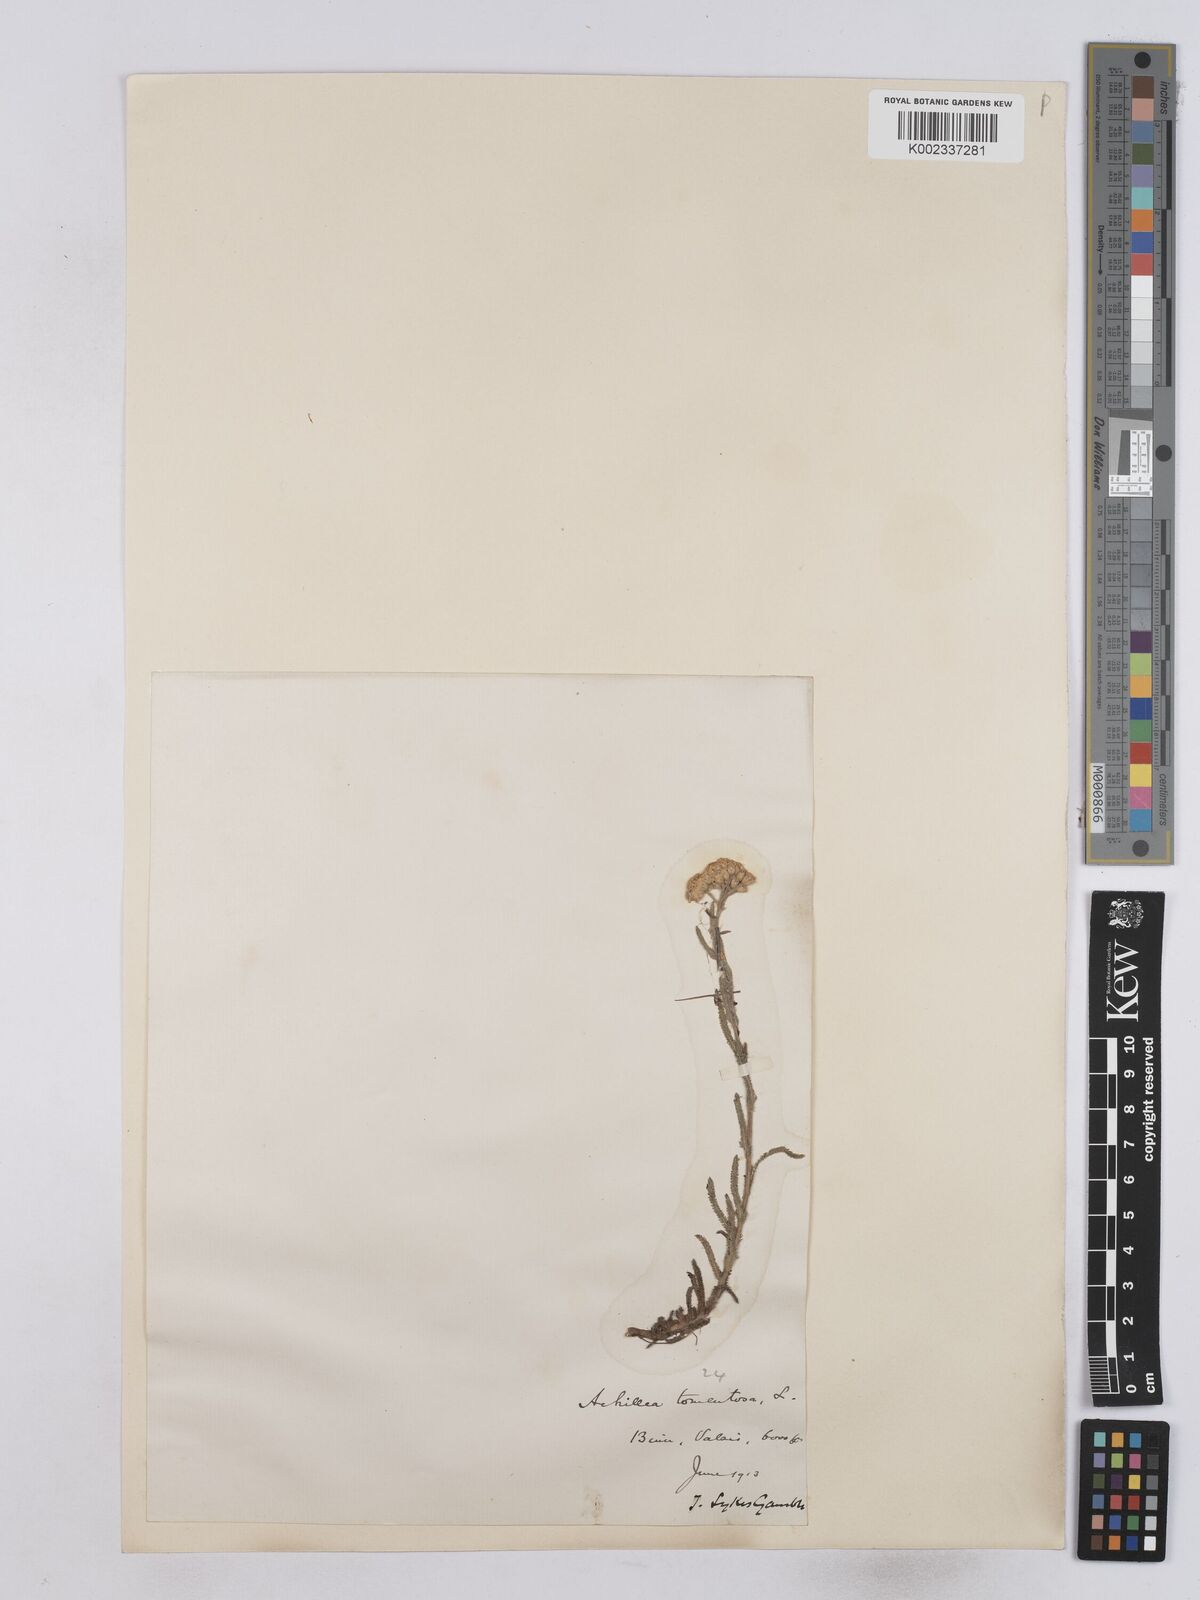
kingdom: Plantae
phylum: Tracheophyta
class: Magnoliopsida
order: Asterales
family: Asteraceae
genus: Achillea
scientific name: Achillea tomentosa
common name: Yellow milfoil
